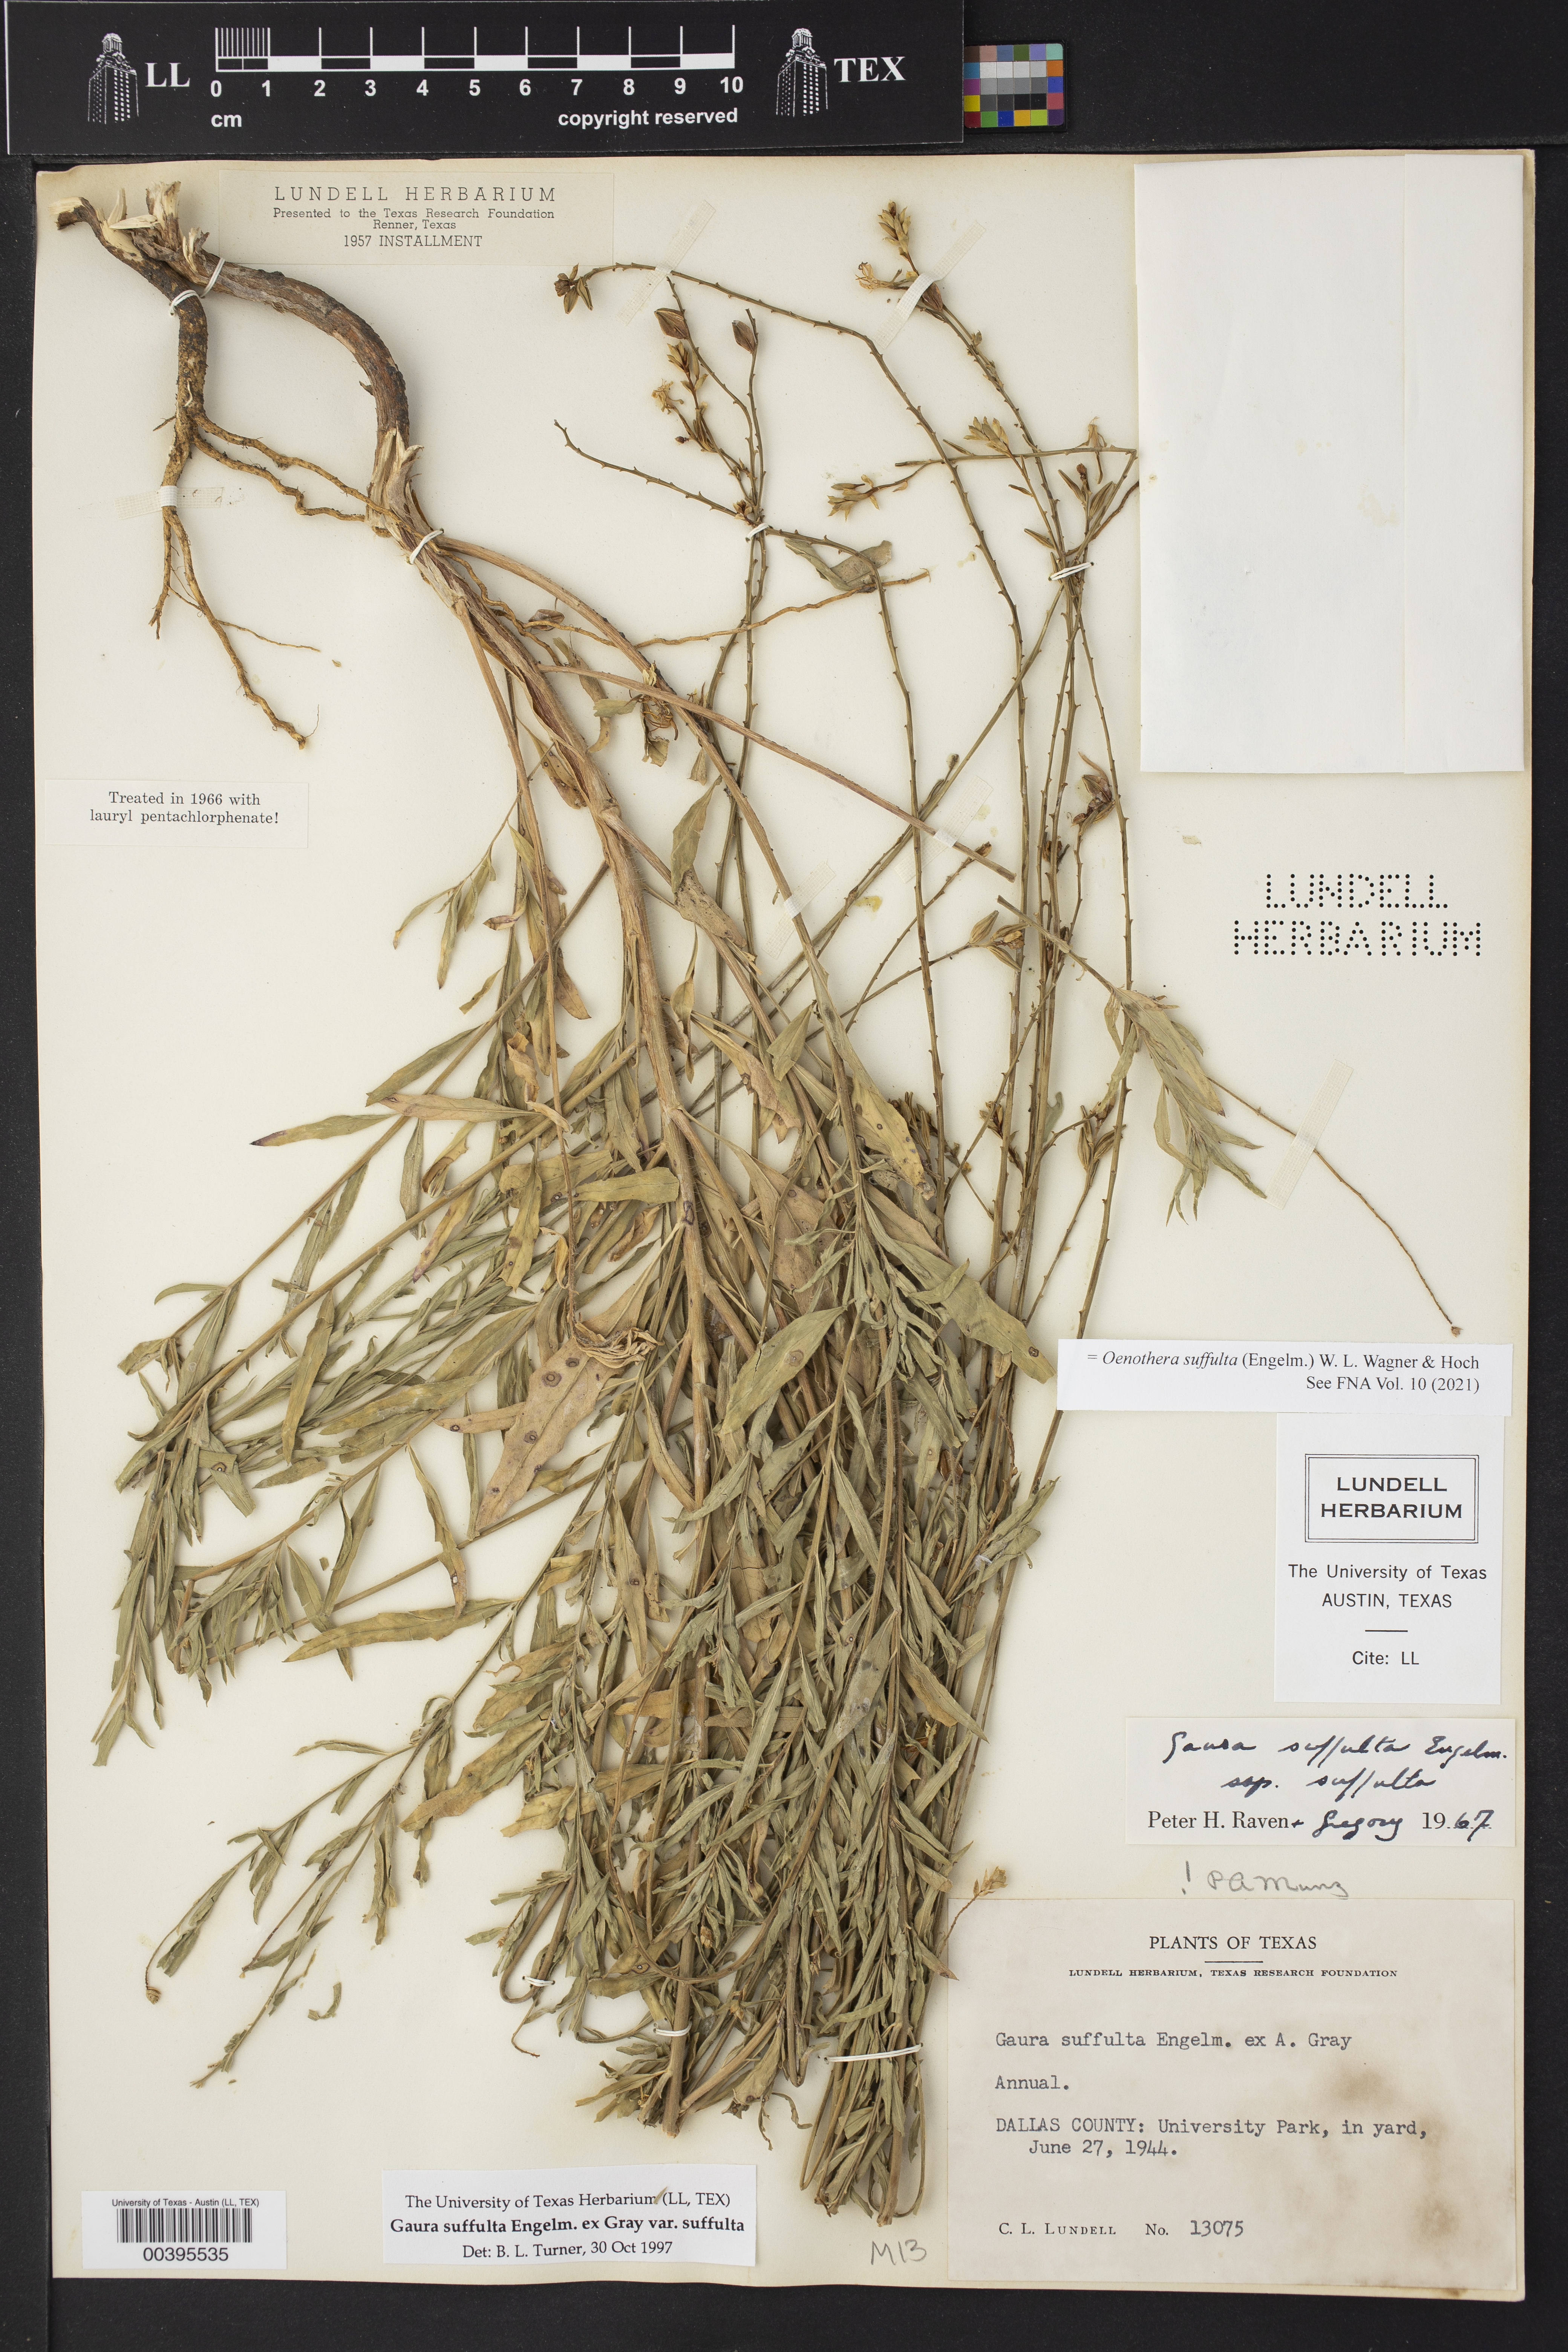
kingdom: Plantae
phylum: Tracheophyta
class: Magnoliopsida
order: Myrtales
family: Onagraceae
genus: Oenothera
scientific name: Oenothera suffulta
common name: Kisses
